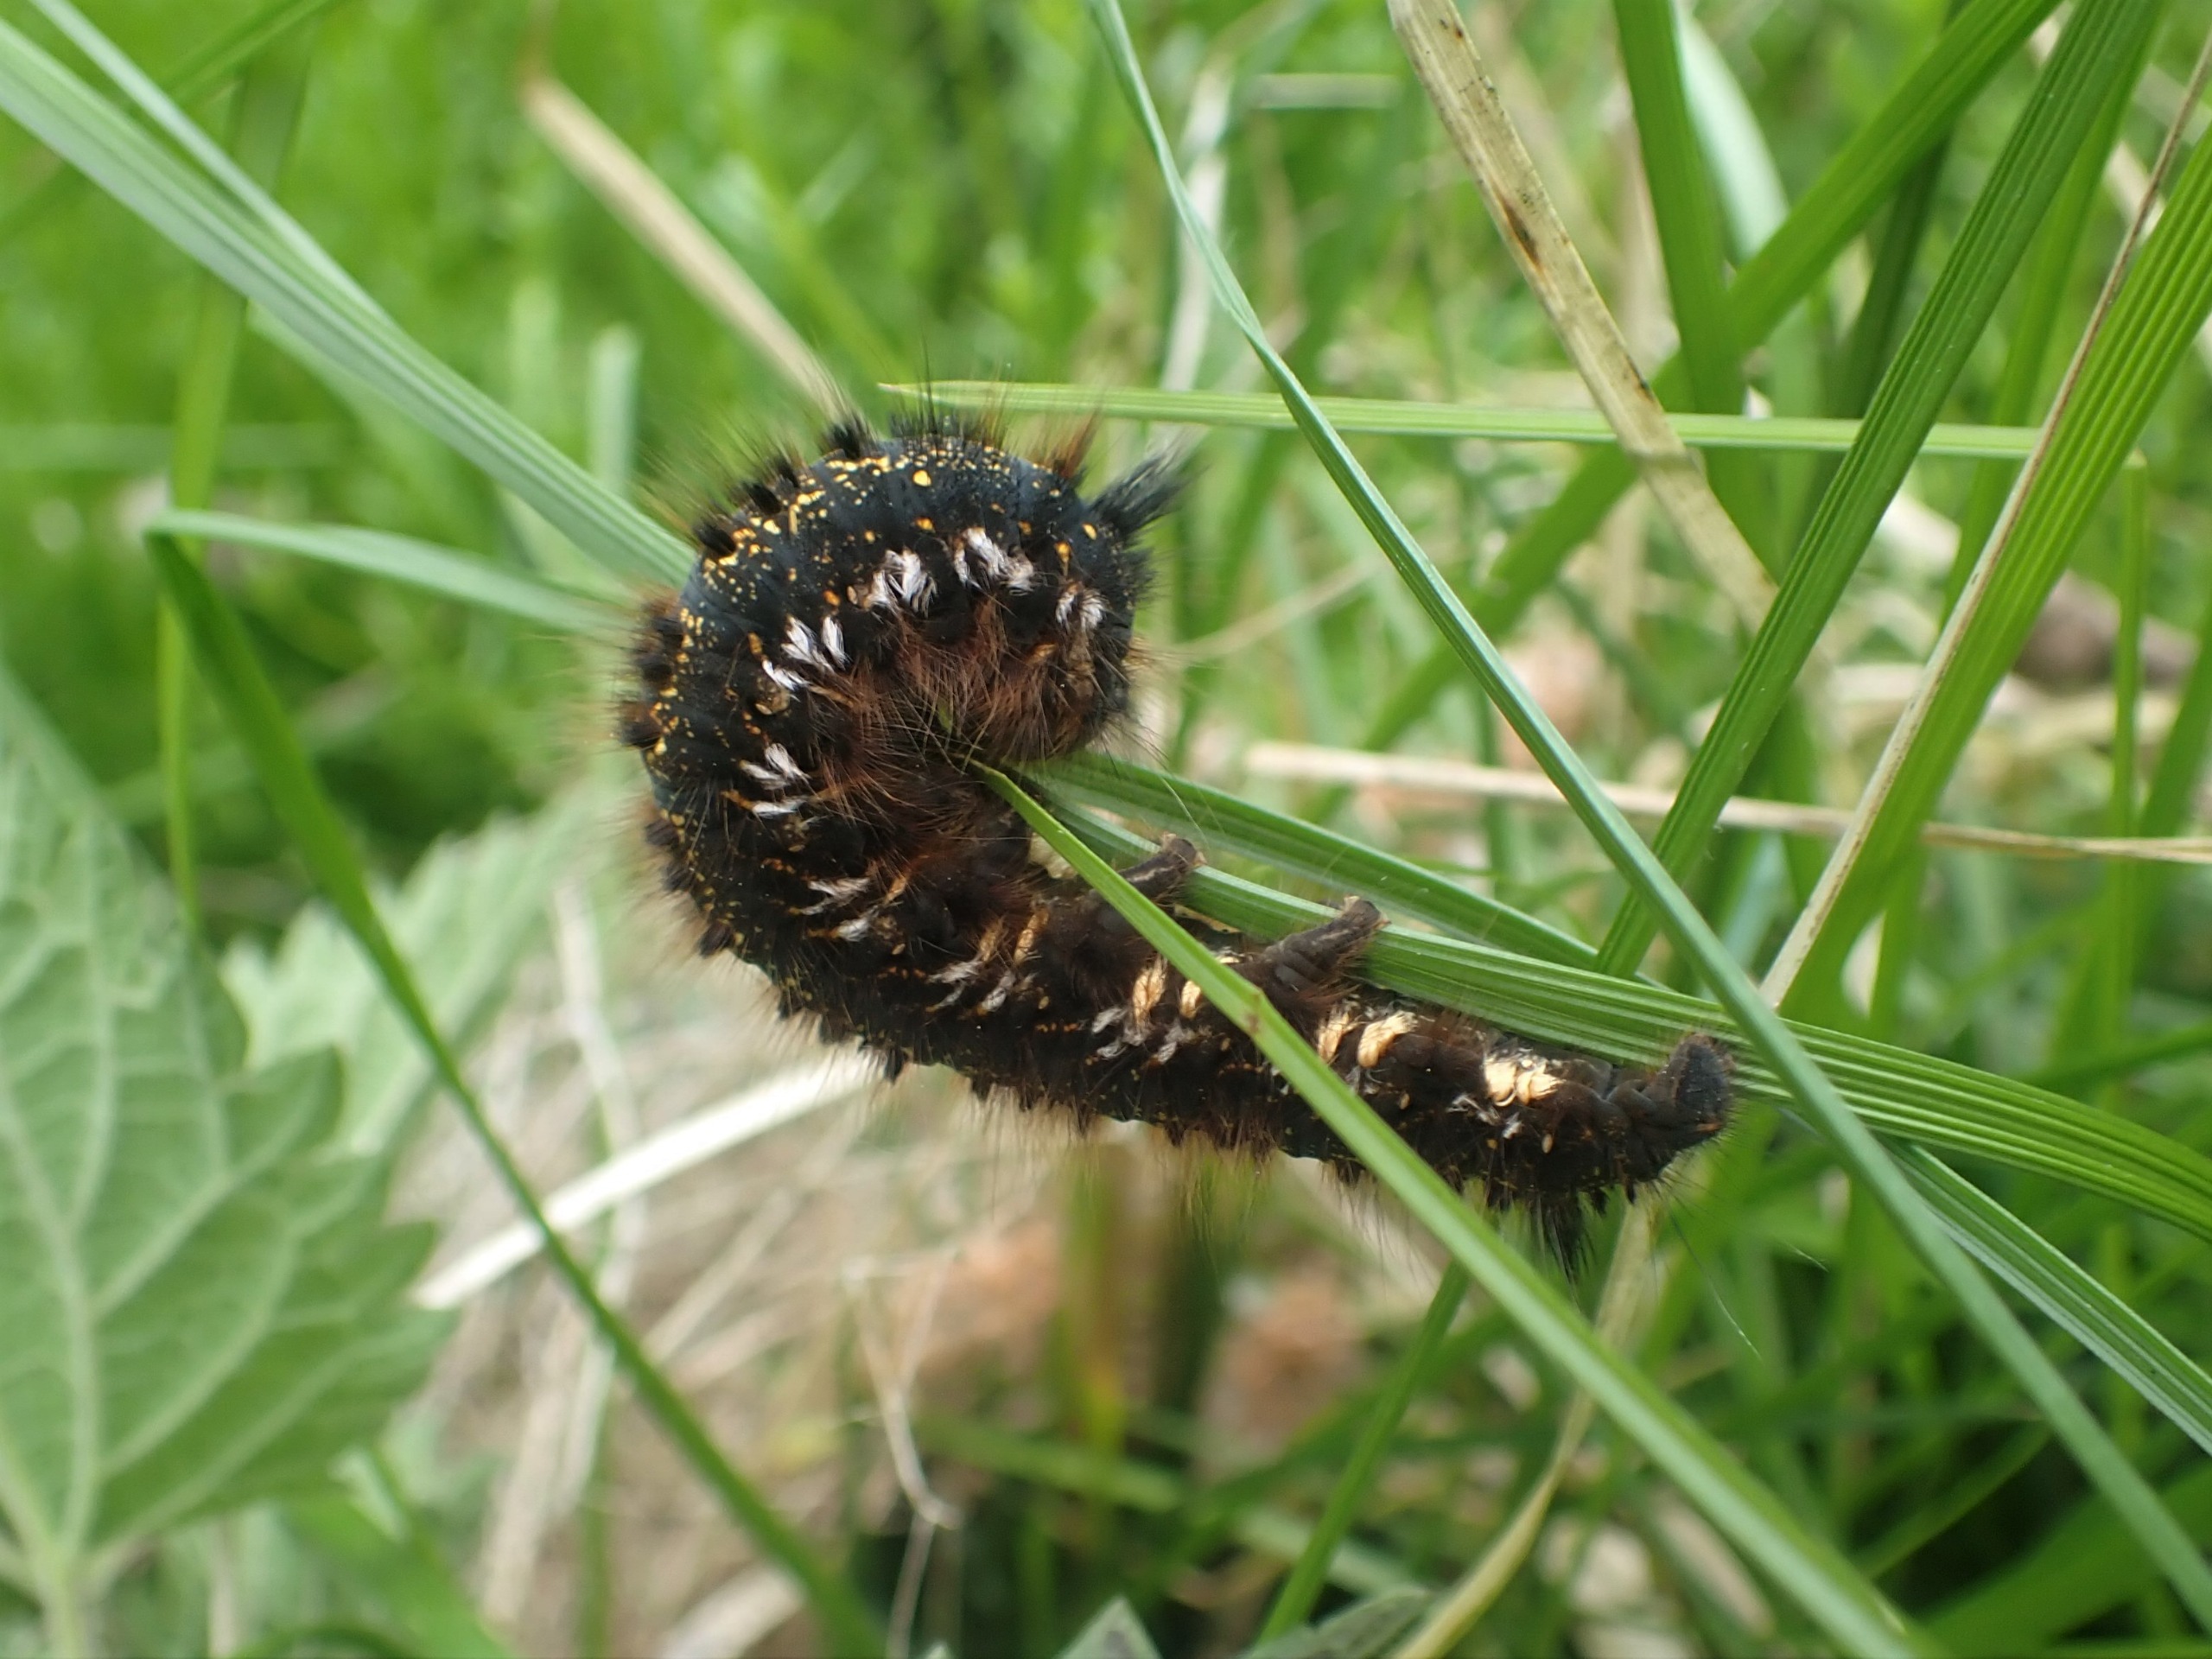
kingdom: Animalia
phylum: Arthropoda
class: Insecta
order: Lepidoptera
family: Lasiocampidae
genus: Euthrix
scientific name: Euthrix potatoria
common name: Græsspinder
